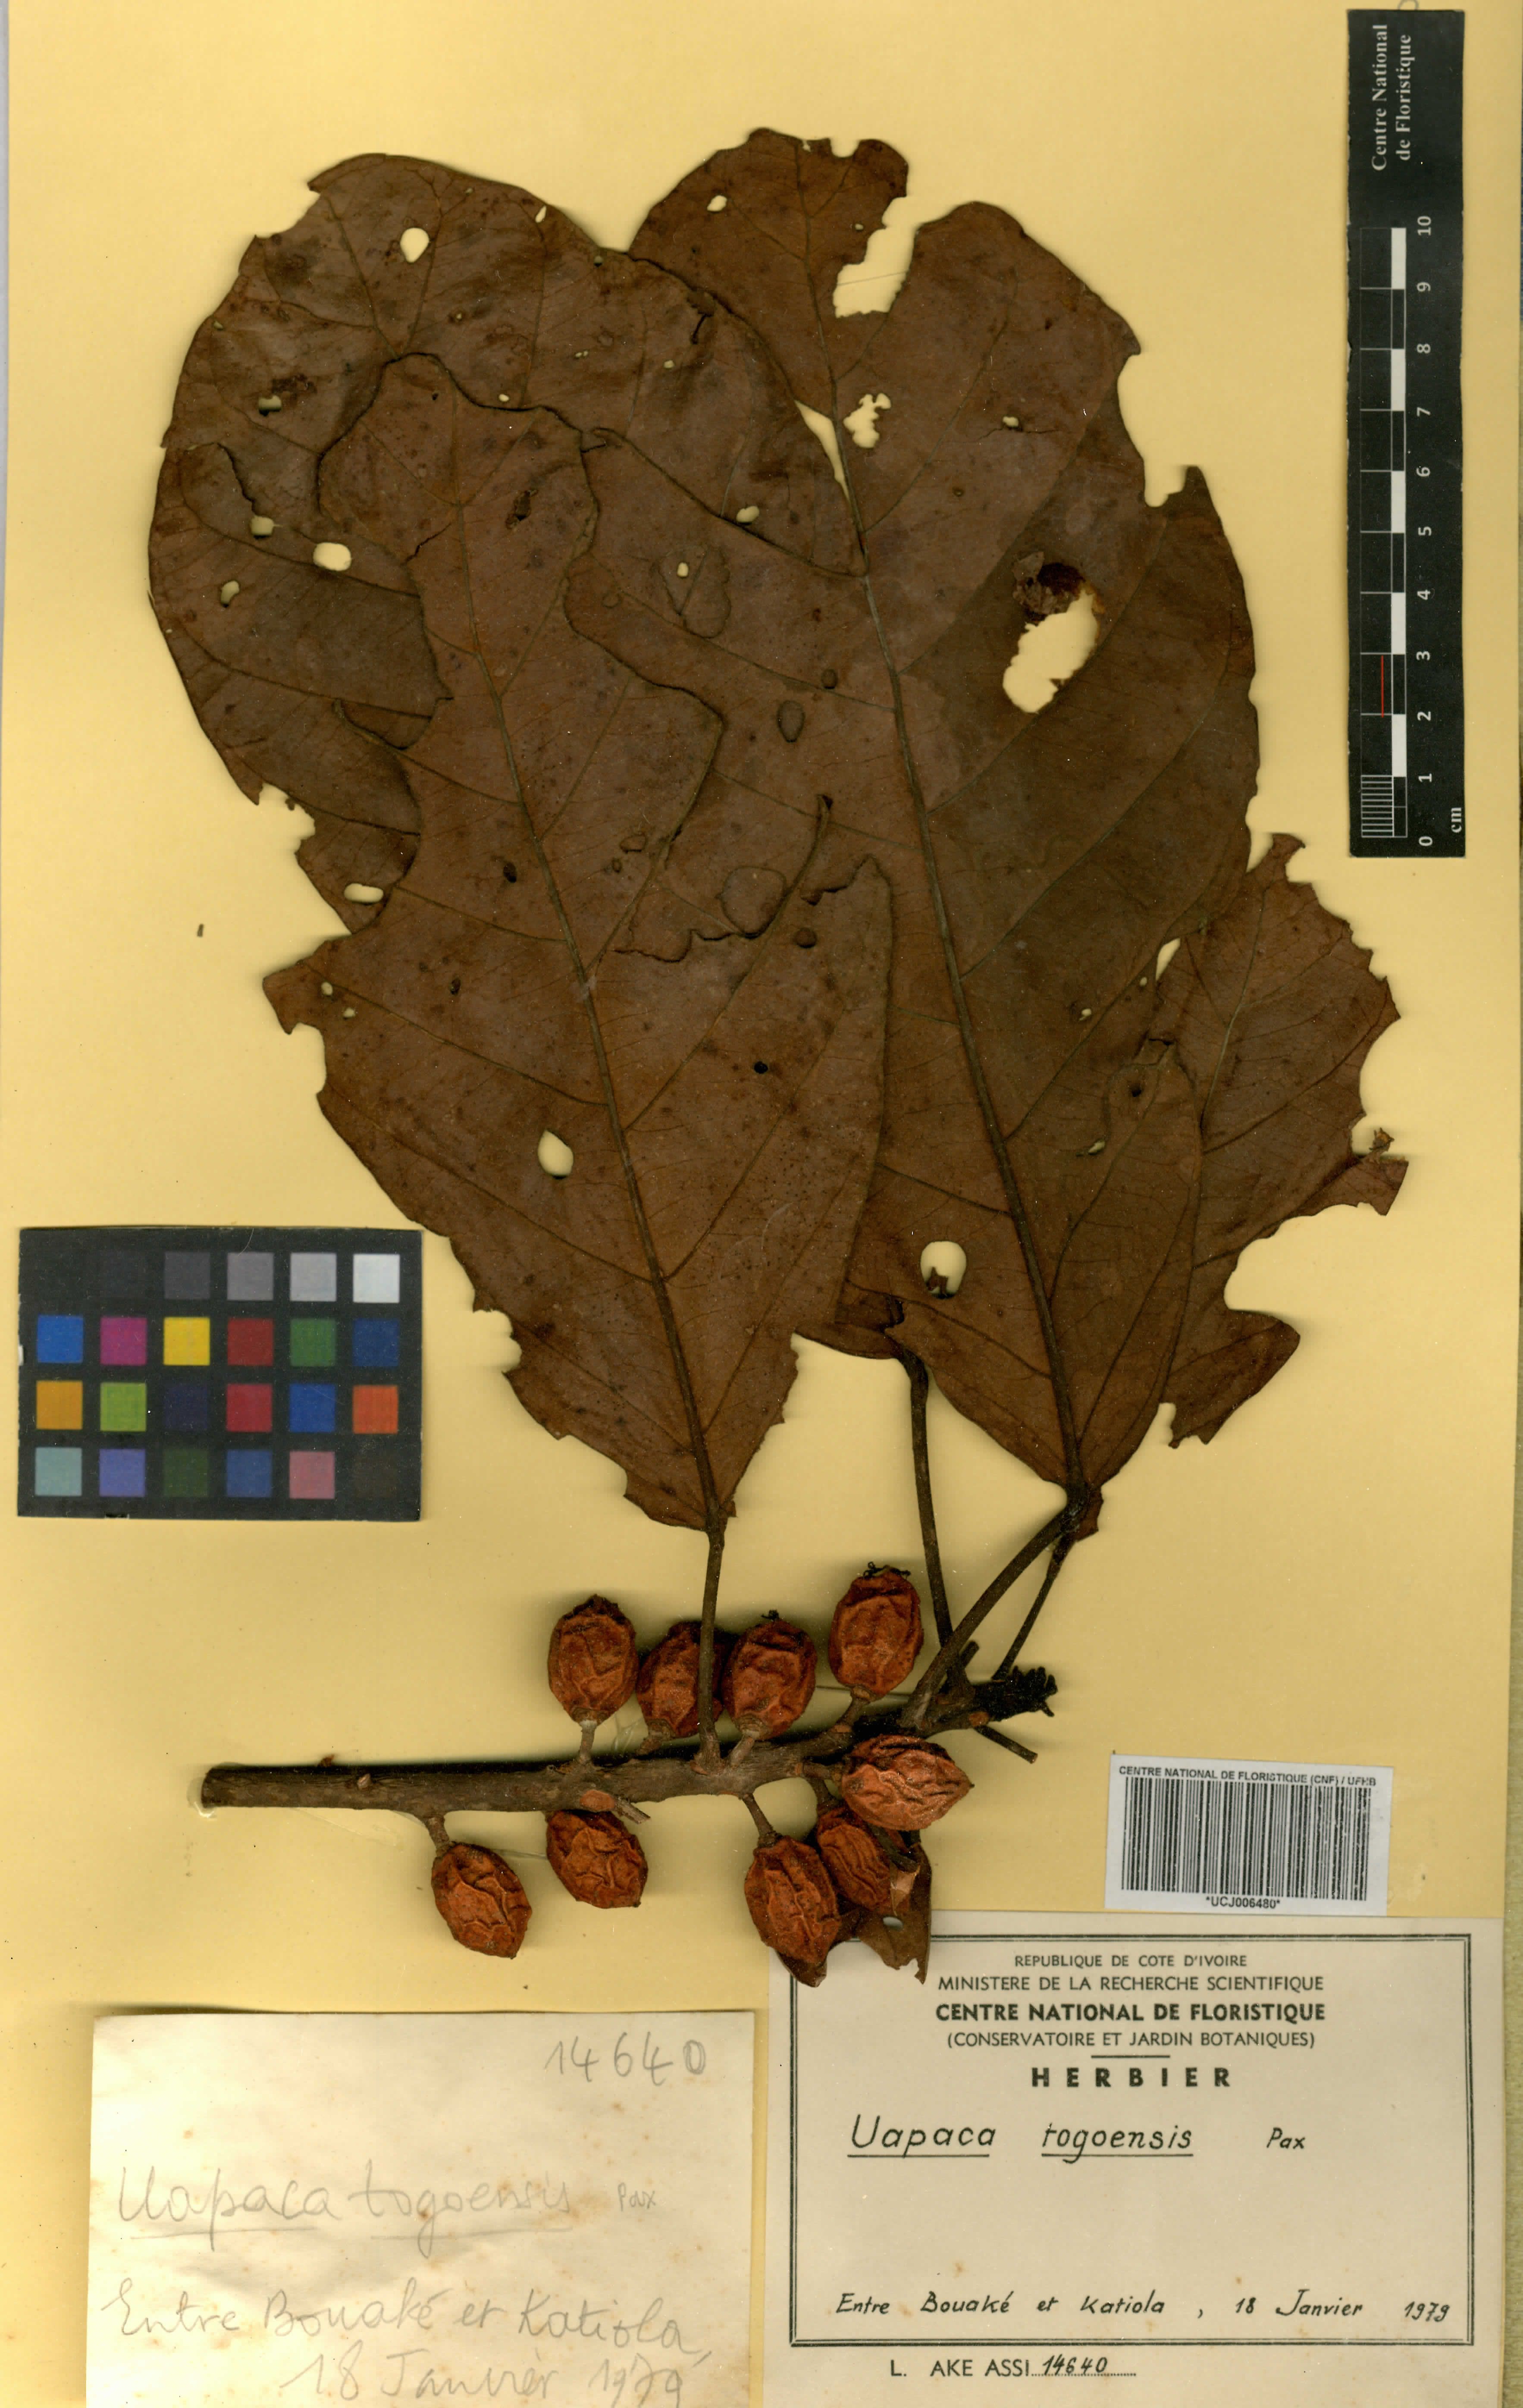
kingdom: Plantae
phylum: Tracheophyta
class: Magnoliopsida
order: Malpighiales
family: Phyllanthaceae
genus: Uapaca
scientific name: Uapaca togoensis
